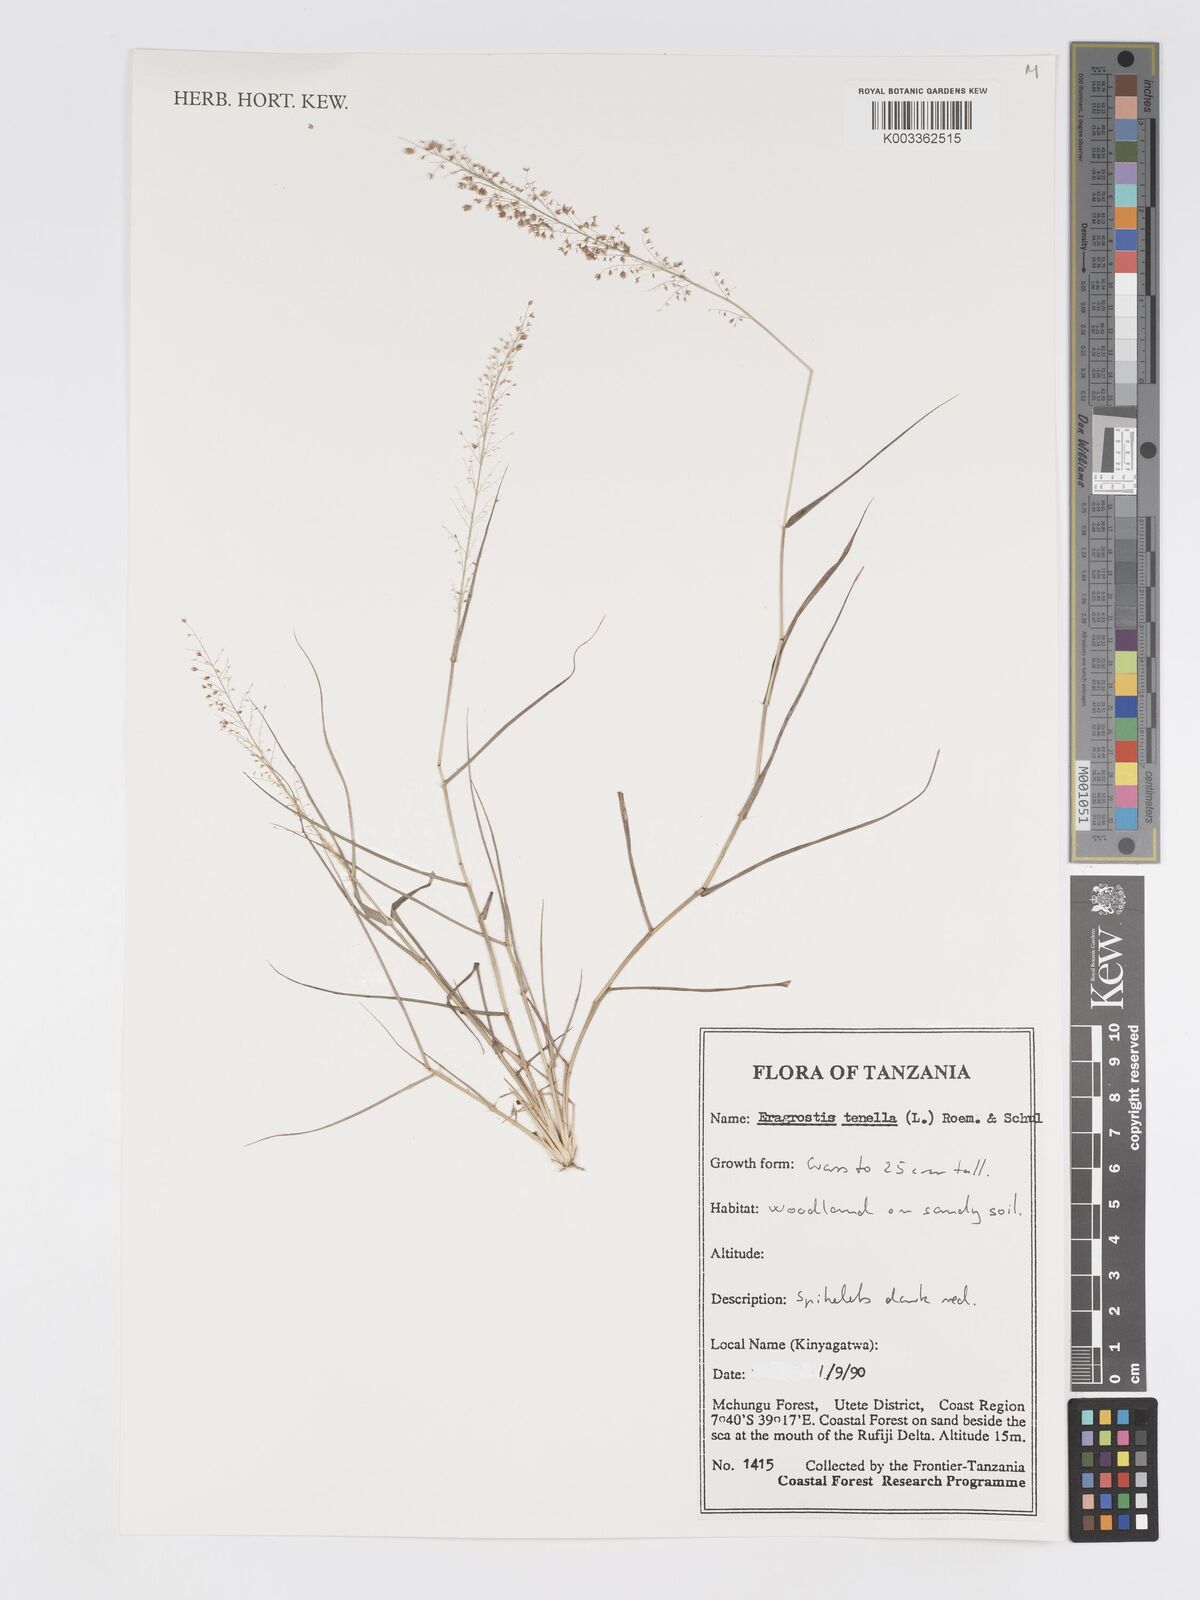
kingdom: Plantae
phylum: Tracheophyta
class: Liliopsida
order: Poales
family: Poaceae
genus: Eragrostis
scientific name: Eragrostis tenella
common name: Japanese lovegrass
